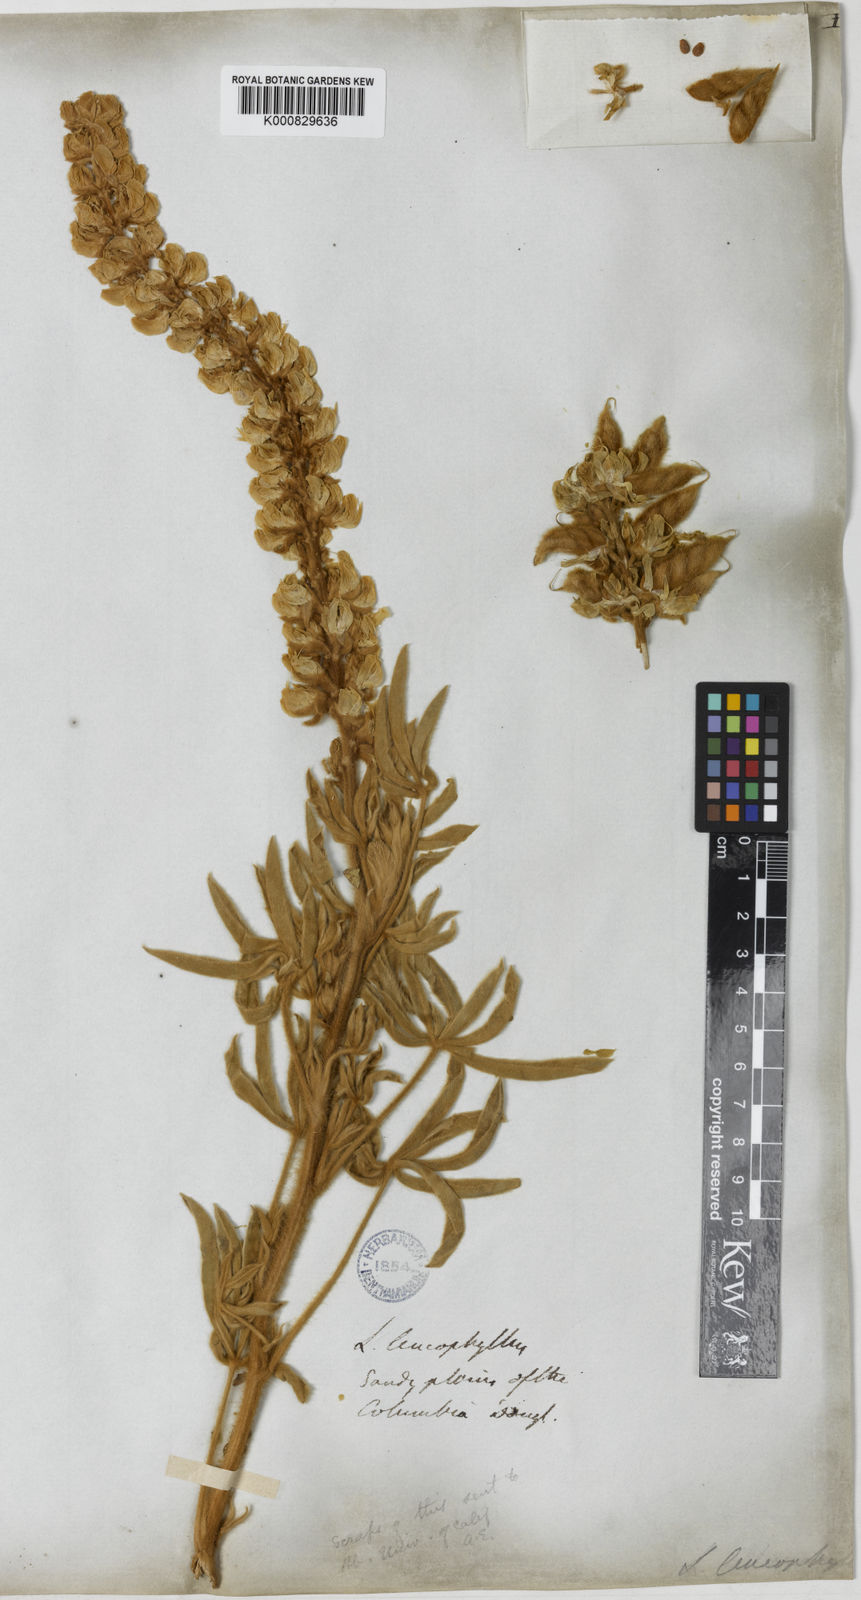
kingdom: Plantae
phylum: Tracheophyta
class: Magnoliopsida
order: Fabales
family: Fabaceae
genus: Lupinus
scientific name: Lupinus leucophyllus
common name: Woolly-leaf lupine
